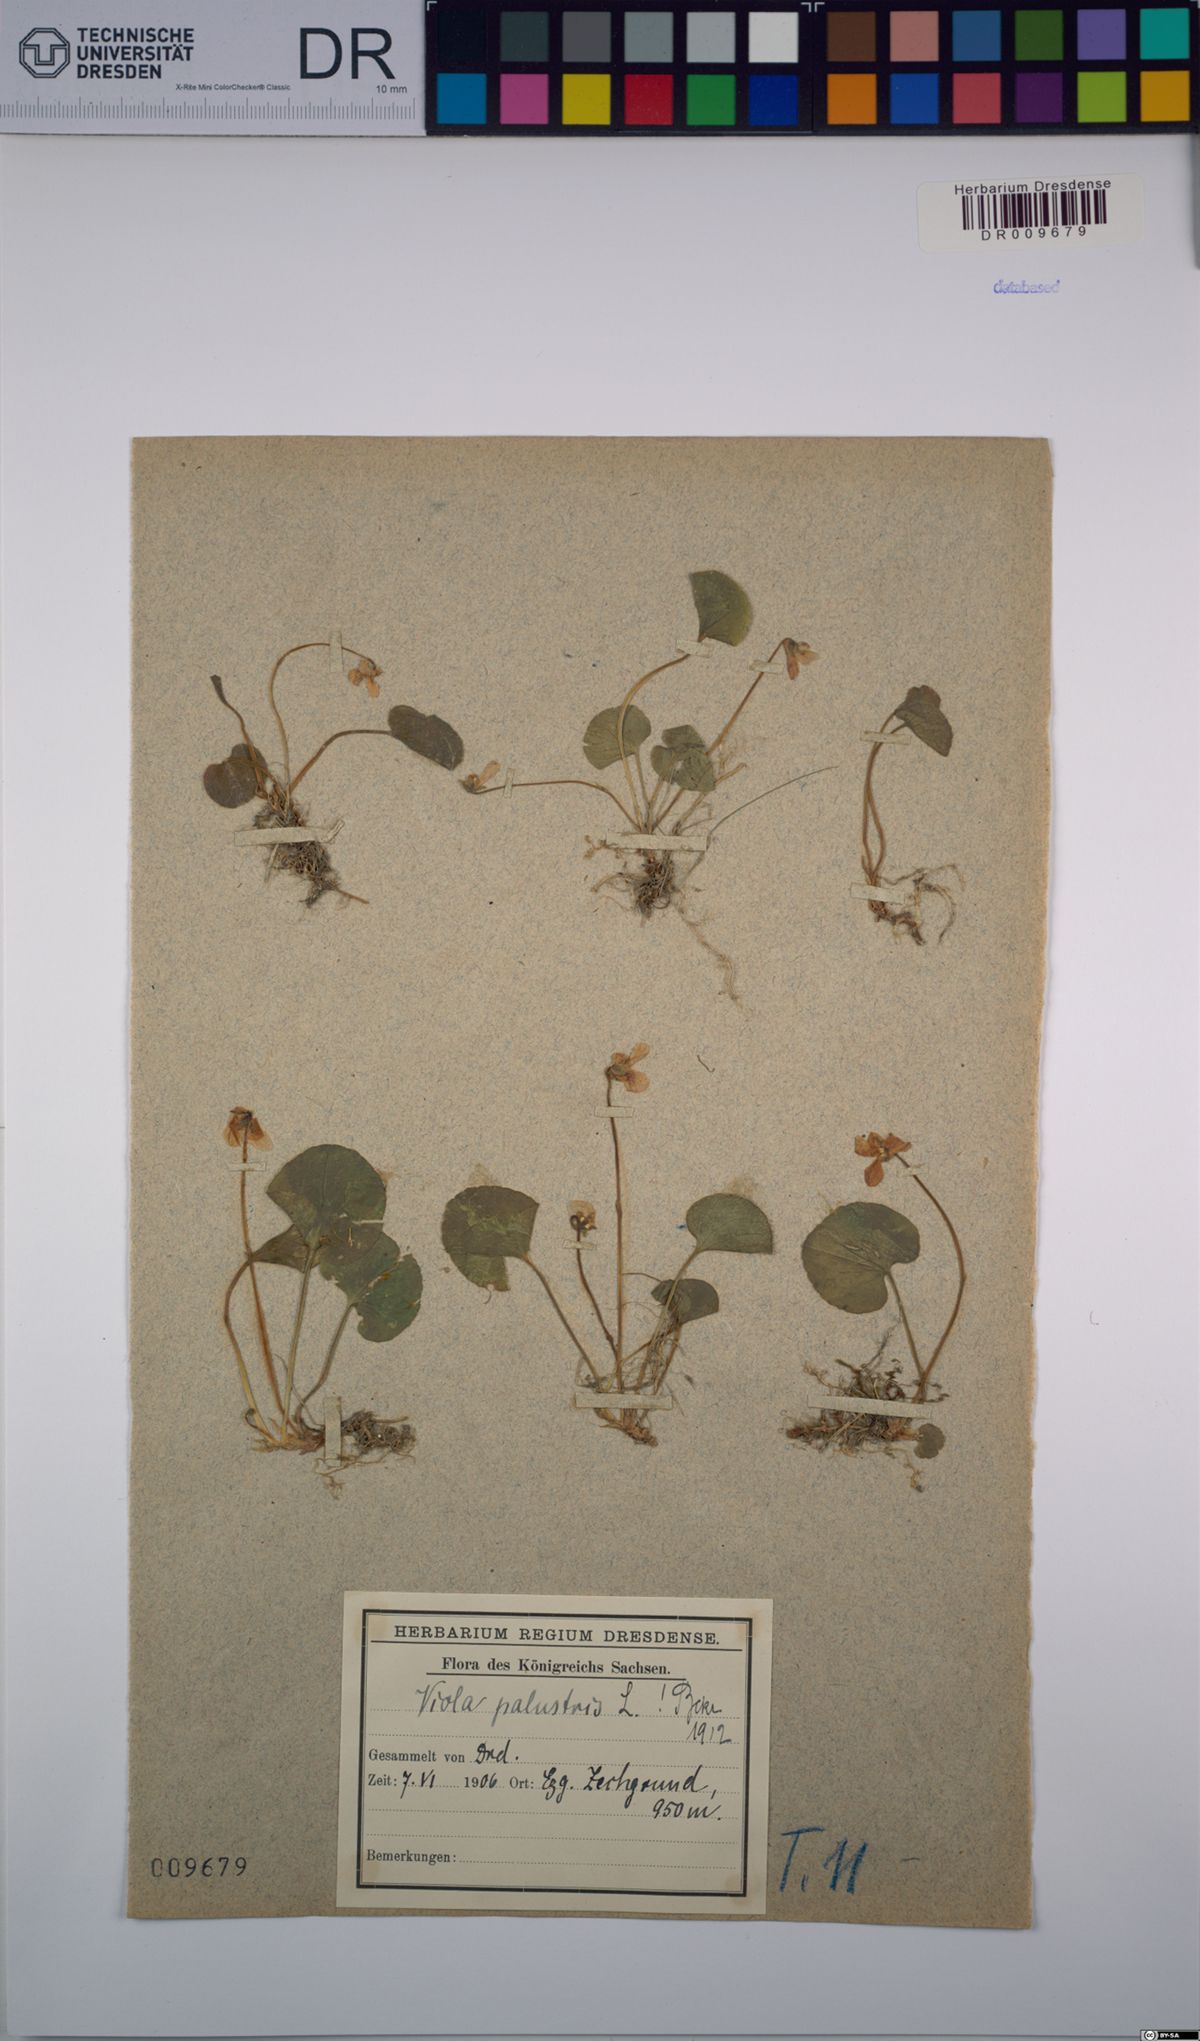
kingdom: Plantae
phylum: Tracheophyta
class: Magnoliopsida
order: Malpighiales
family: Violaceae
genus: Viola
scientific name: Viola palustris
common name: Marsh violet
